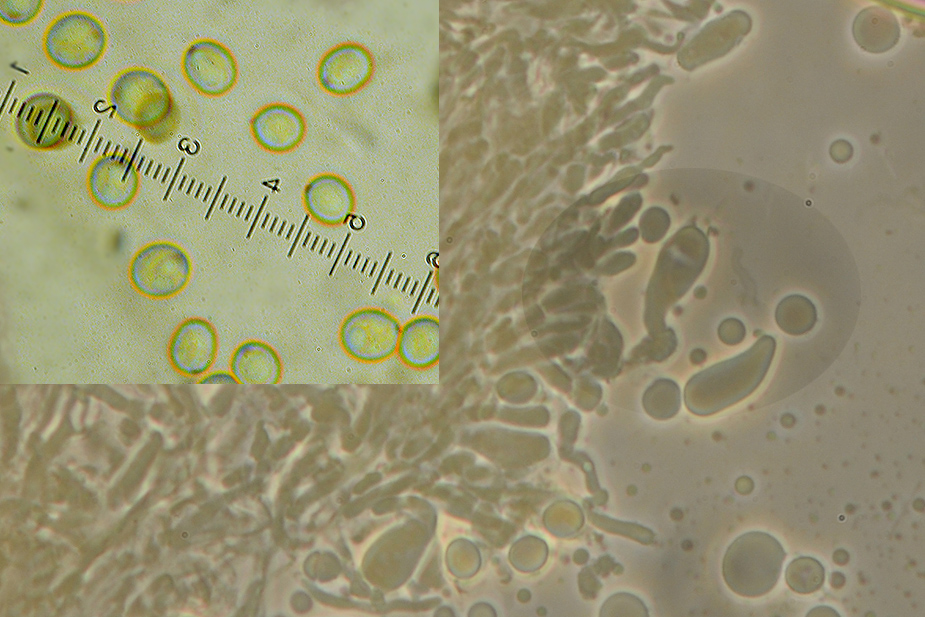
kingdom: Fungi
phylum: Basidiomycota
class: Agaricomycetes
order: Agaricales
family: Marasmiaceae
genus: Henningsomyces
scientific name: Henningsomyces puber
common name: dunet hængerør
